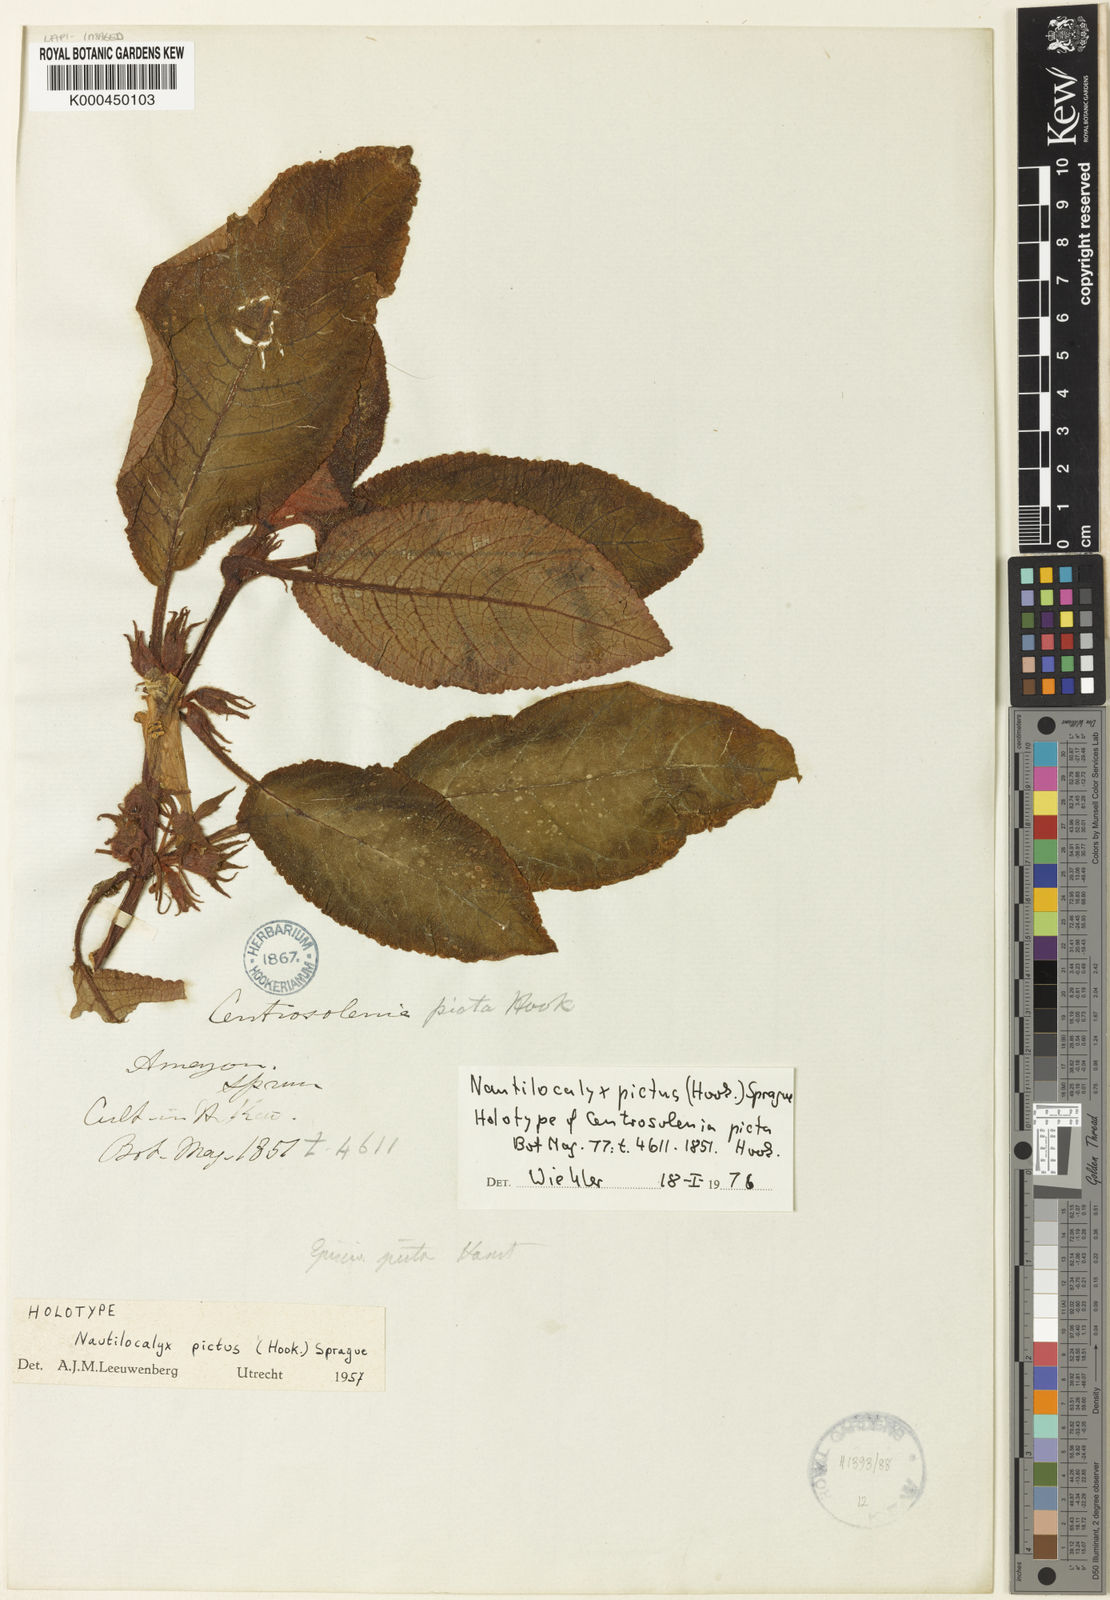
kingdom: Plantae
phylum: Tracheophyta
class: Magnoliopsida
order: Lamiales
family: Gesneriaceae
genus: Centrosolenia
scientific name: Centrosolenia picta
